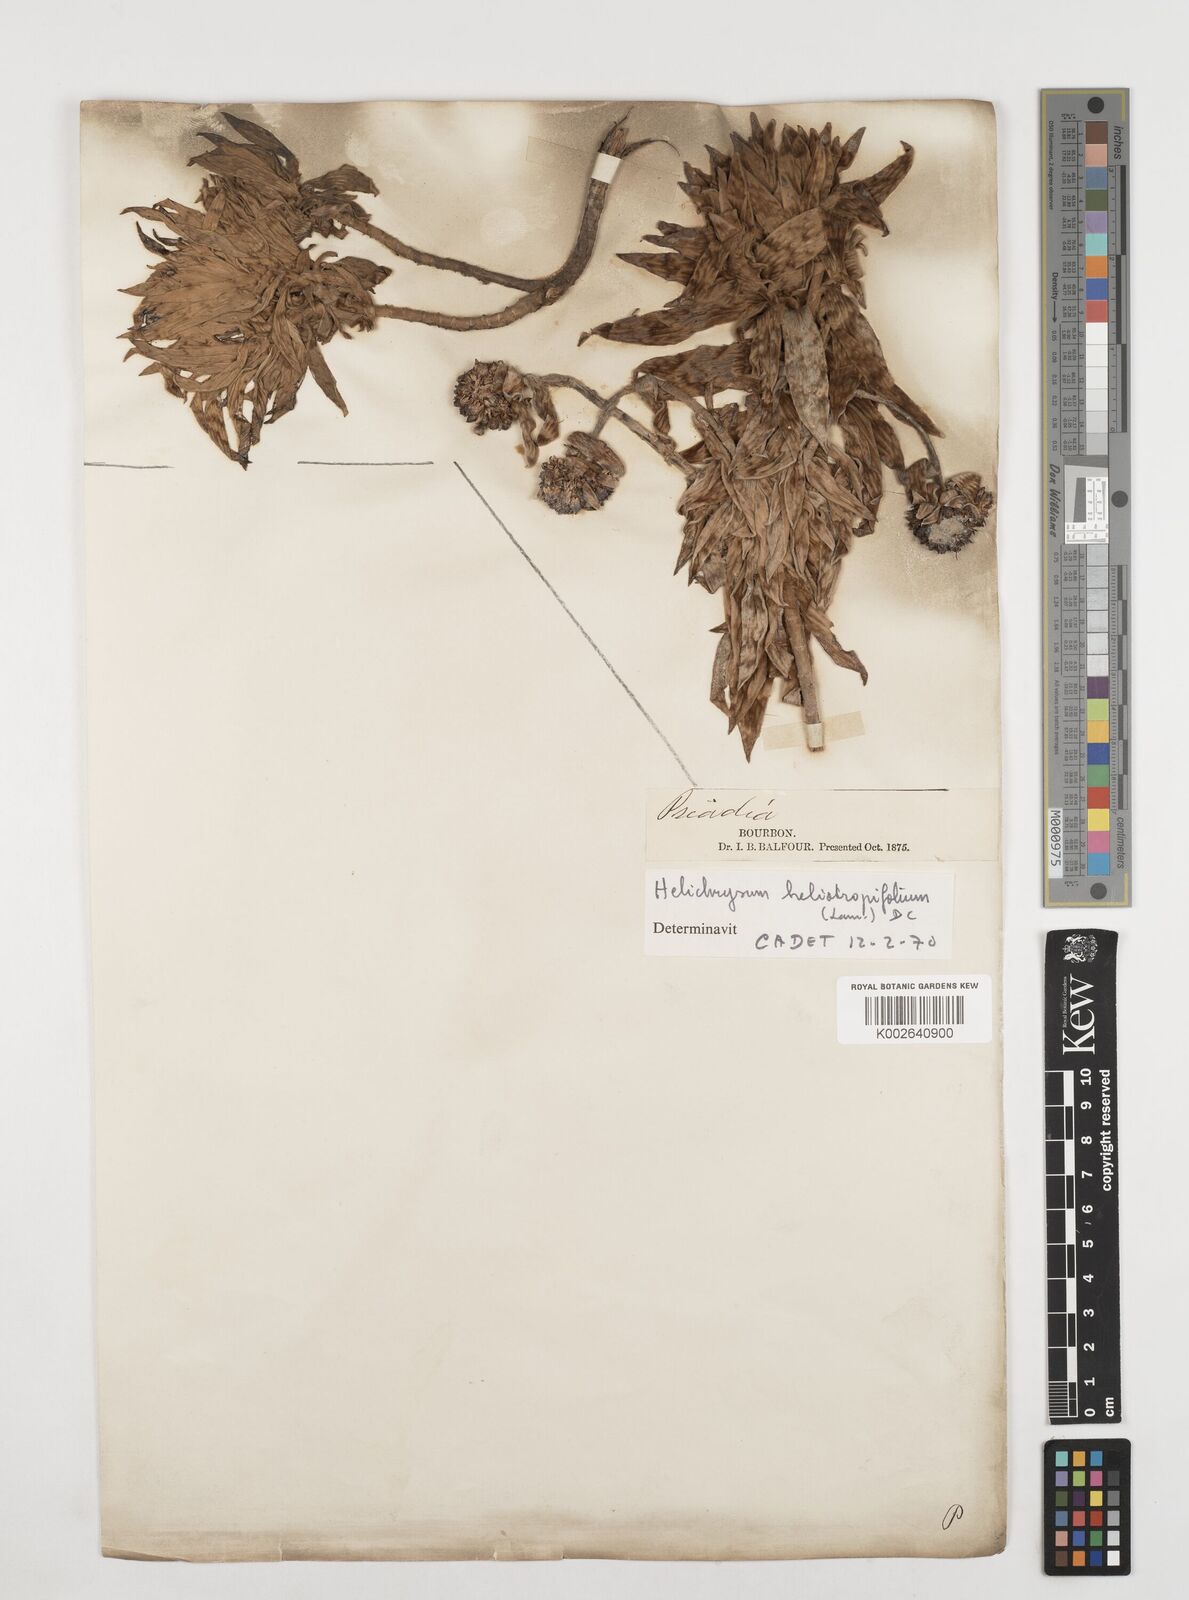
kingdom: Plantae
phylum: Tracheophyta
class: Magnoliopsida
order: Asterales
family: Asteraceae
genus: Helichrysum
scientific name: Helichrysum heliotropifolium
